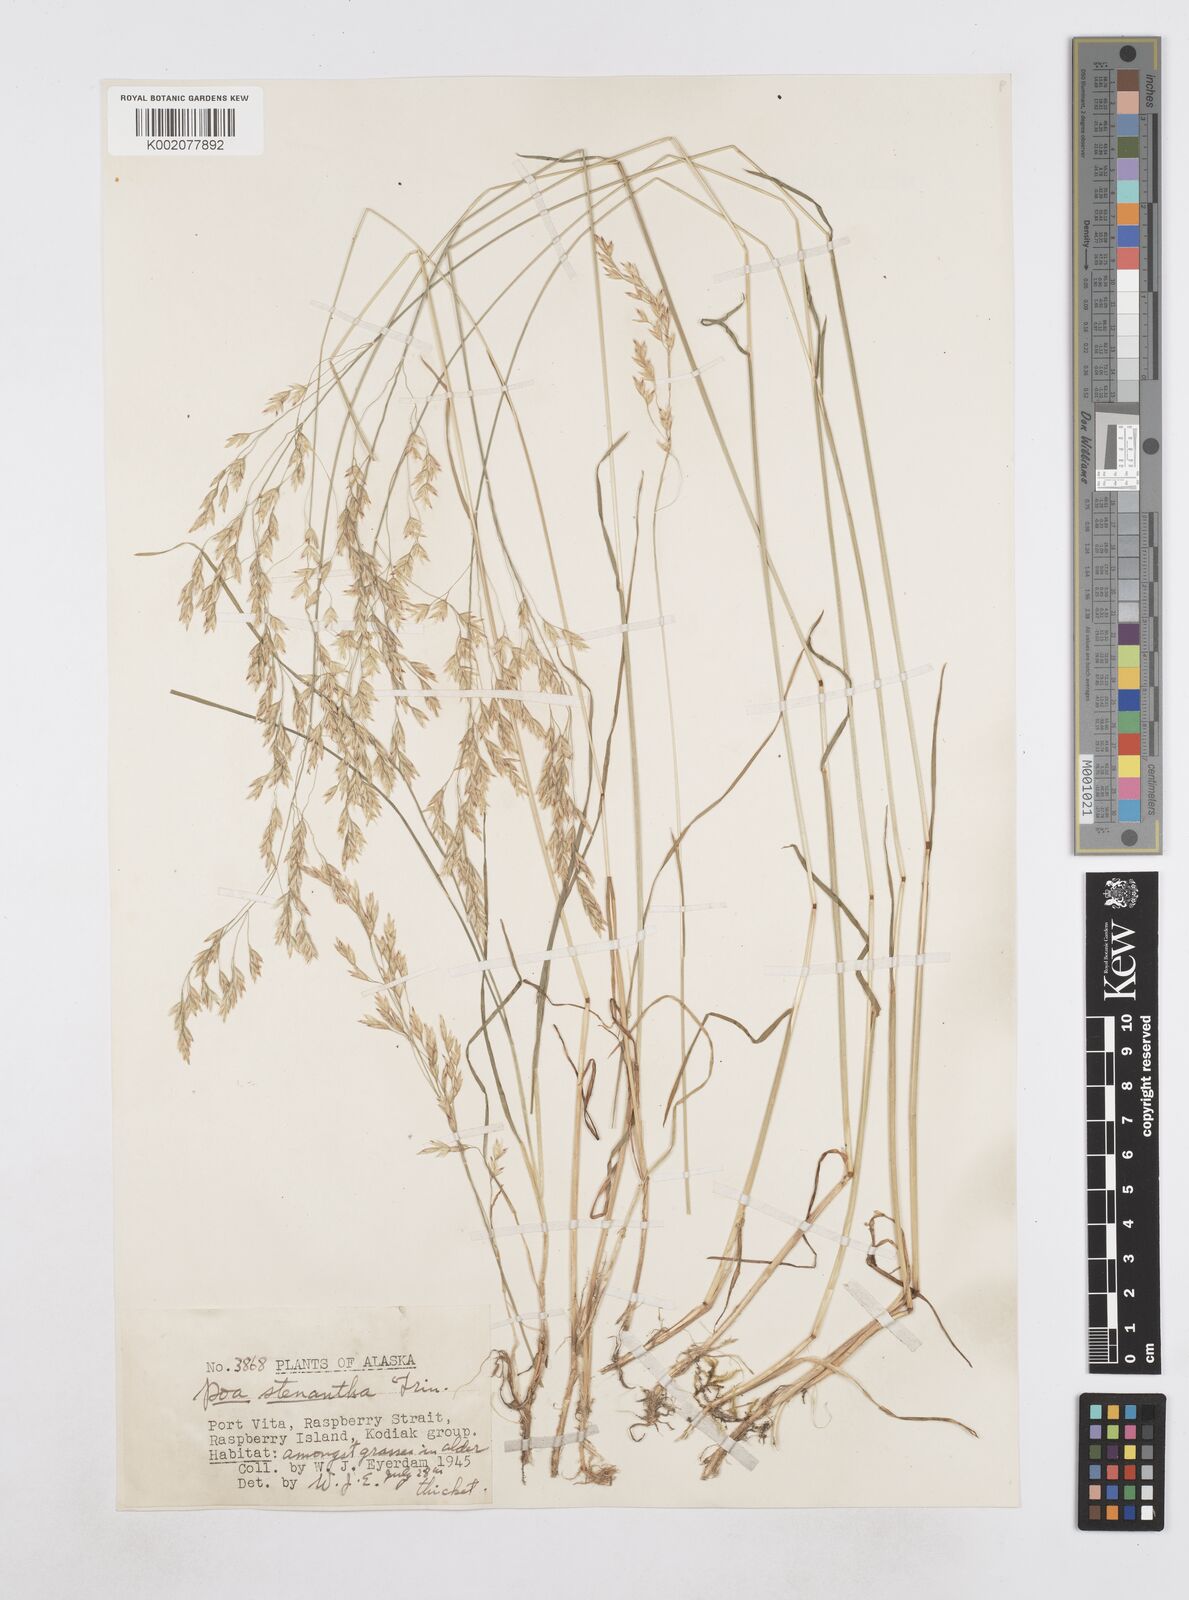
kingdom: Plantae
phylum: Tracheophyta
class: Liliopsida
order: Poales
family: Poaceae
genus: Poa
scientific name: Poa stenantha
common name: Narrow-flowered bluegrass
